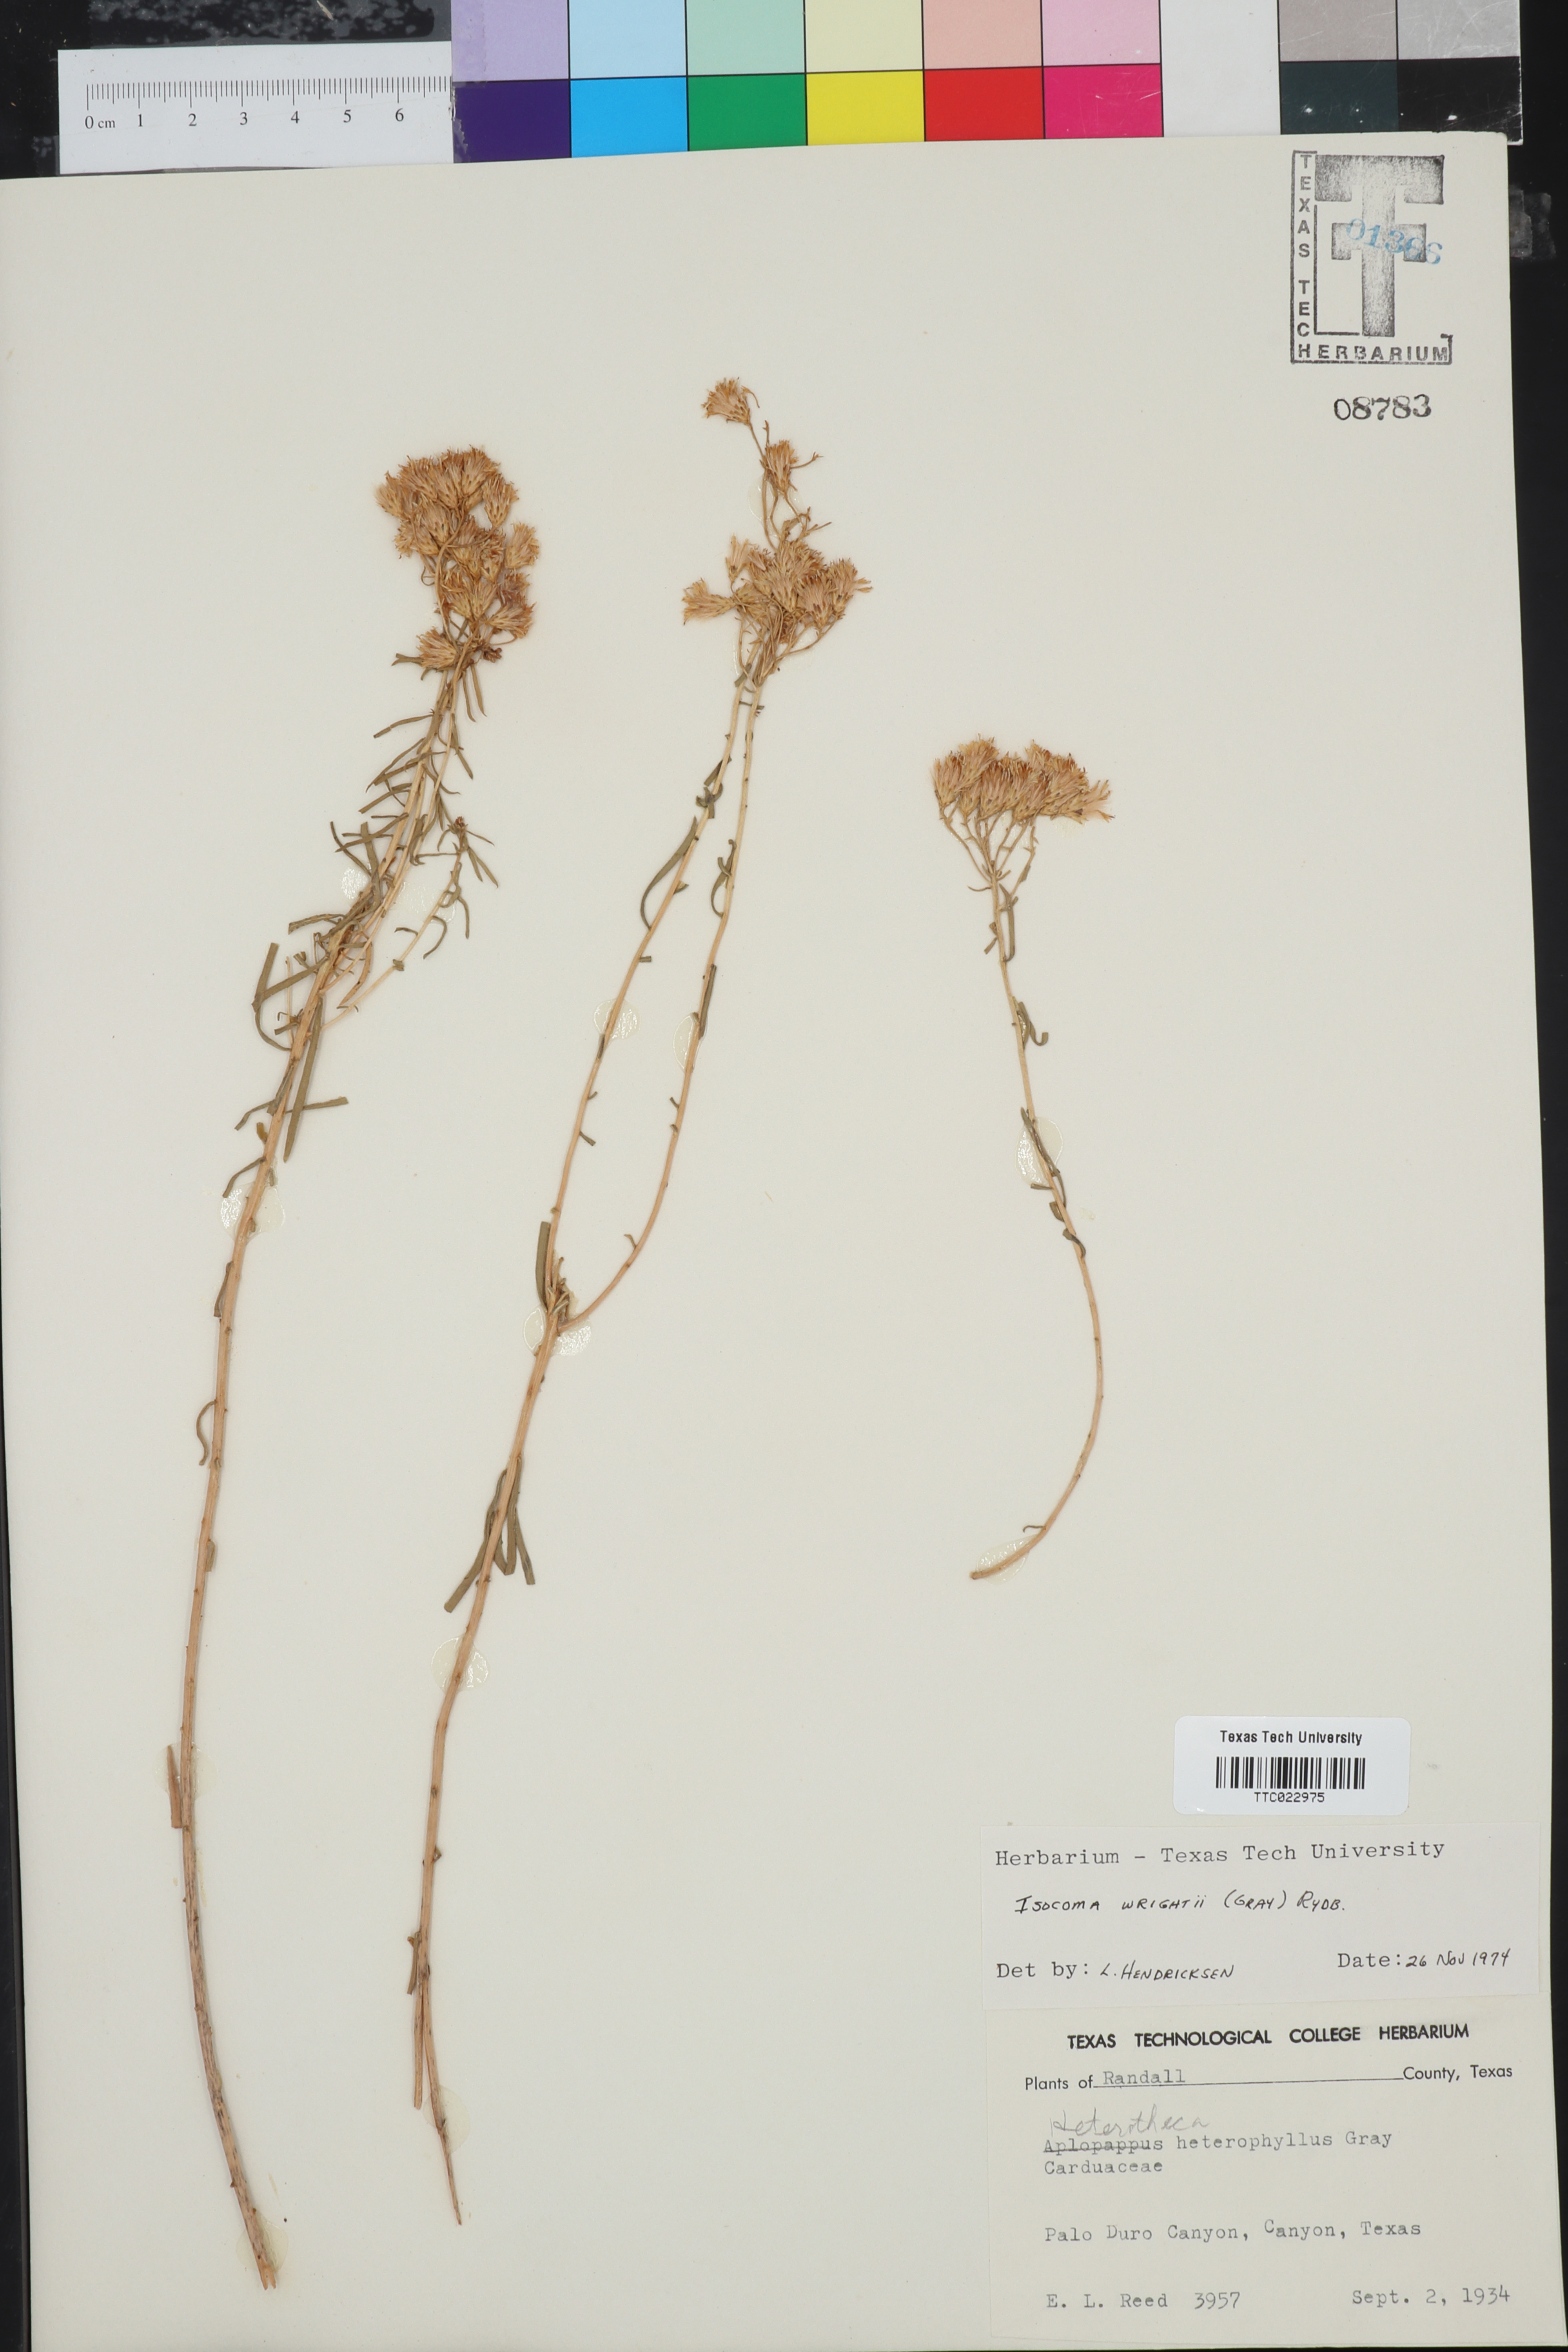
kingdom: Plantae
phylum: Tracheophyta
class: Magnoliopsida
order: Asterales
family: Asteraceae
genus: Isocoma
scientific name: Isocoma pluriflora
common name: Southern jimmyweed
